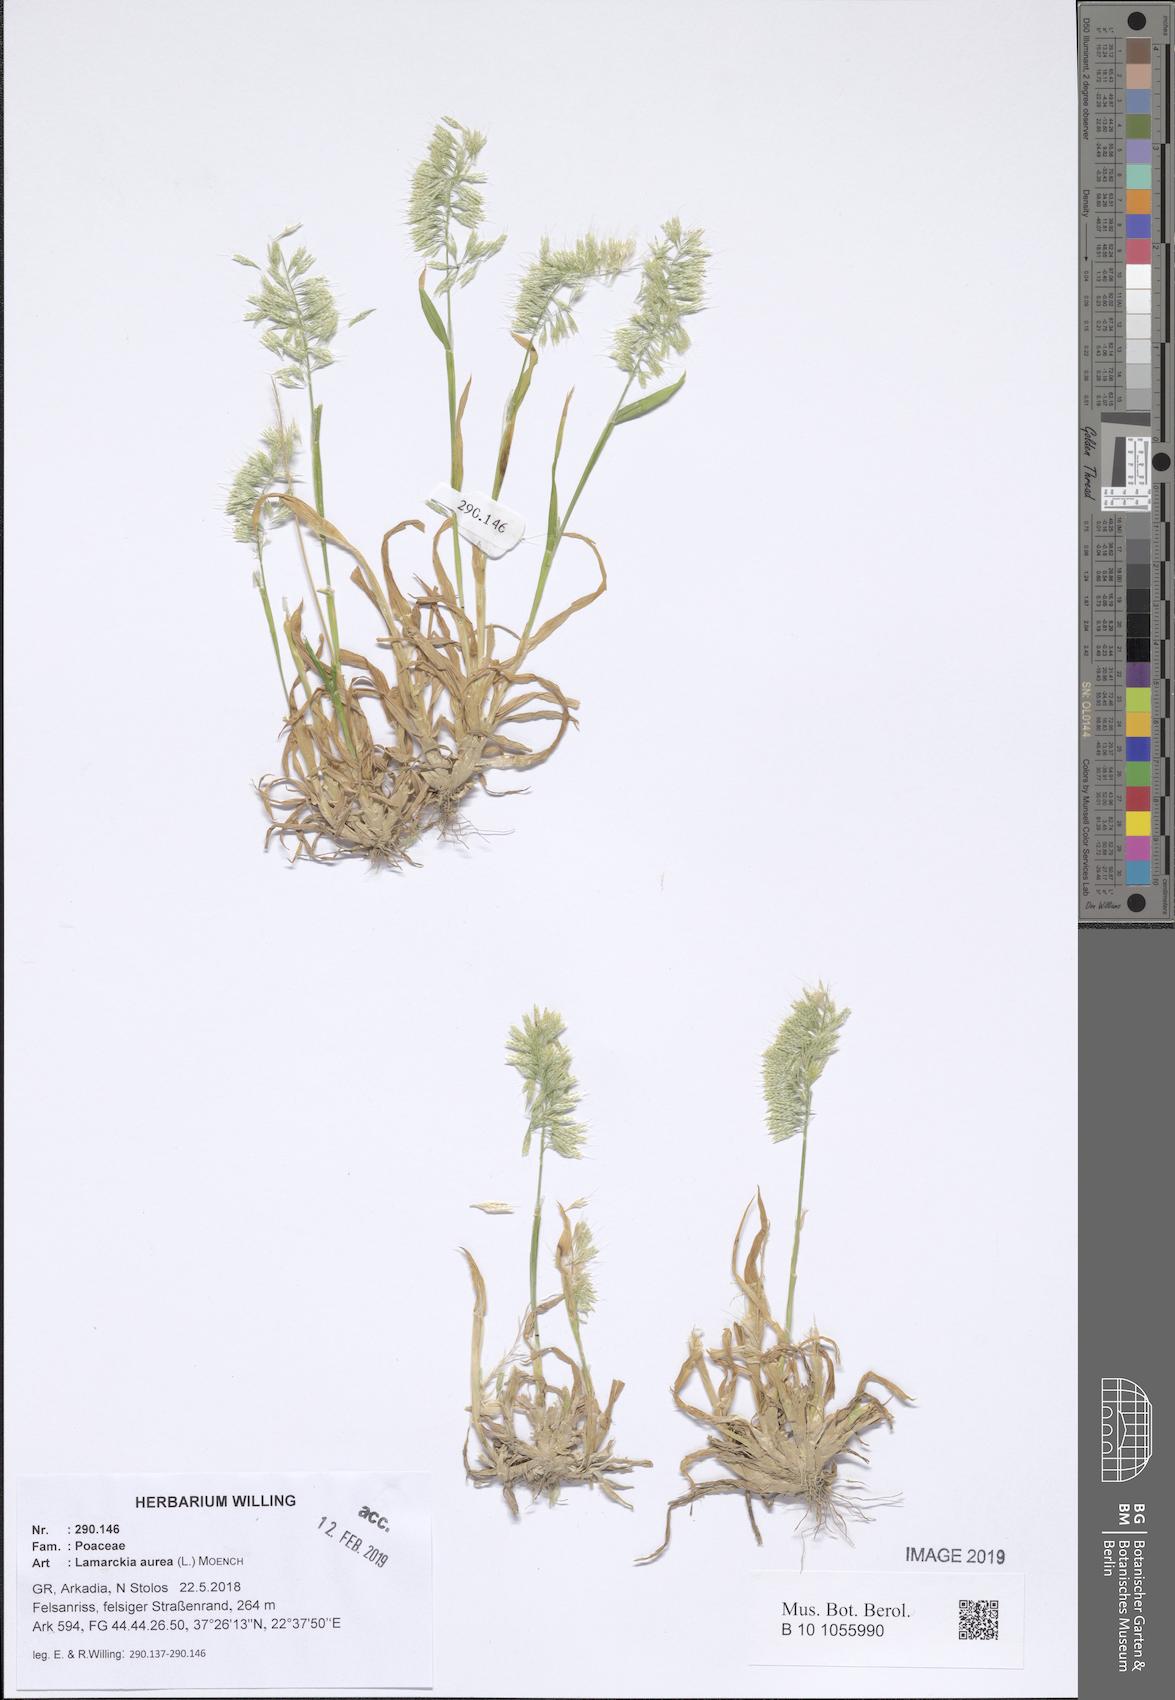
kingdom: Plantae
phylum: Tracheophyta
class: Liliopsida
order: Poales
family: Poaceae
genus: Lamarckia
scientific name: Lamarckia aurea
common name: Golden dog's-tail
